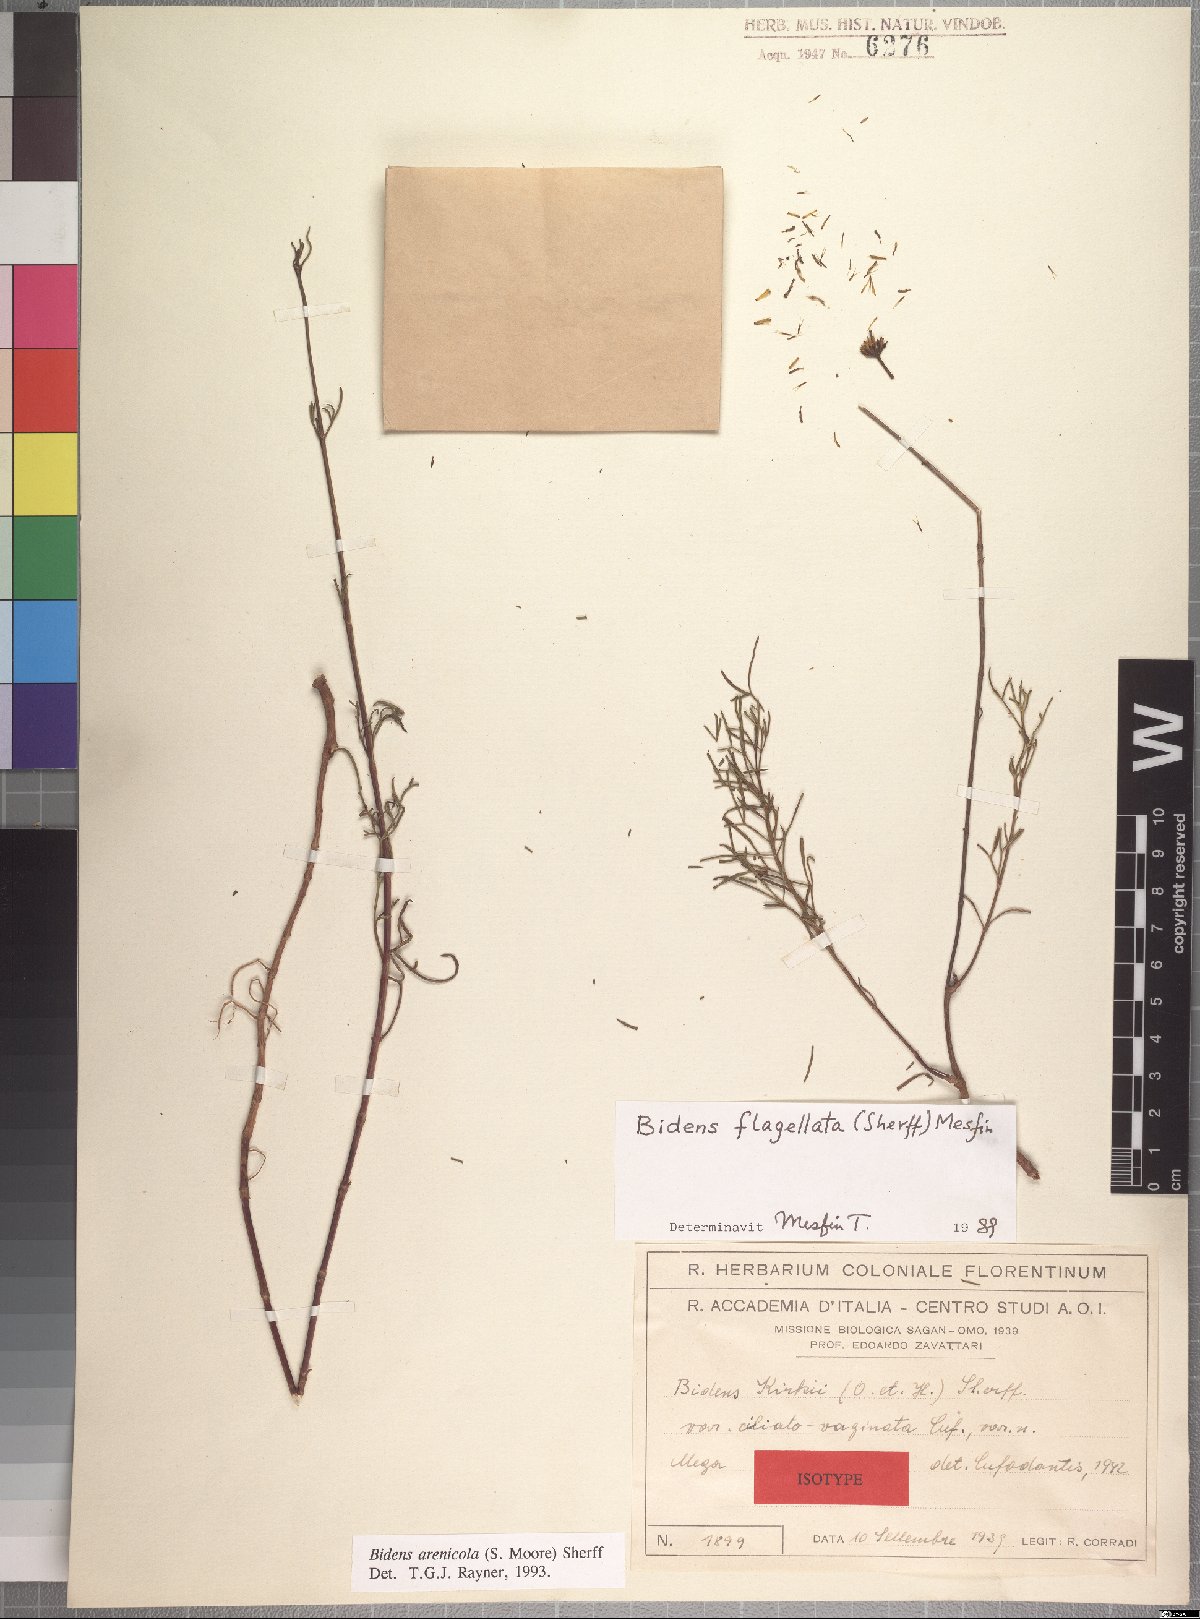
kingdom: Plantae
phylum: Tracheophyta
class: Magnoliopsida
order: Asterales
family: Asteraceae
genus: Bidens
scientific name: Bidens flagellata
